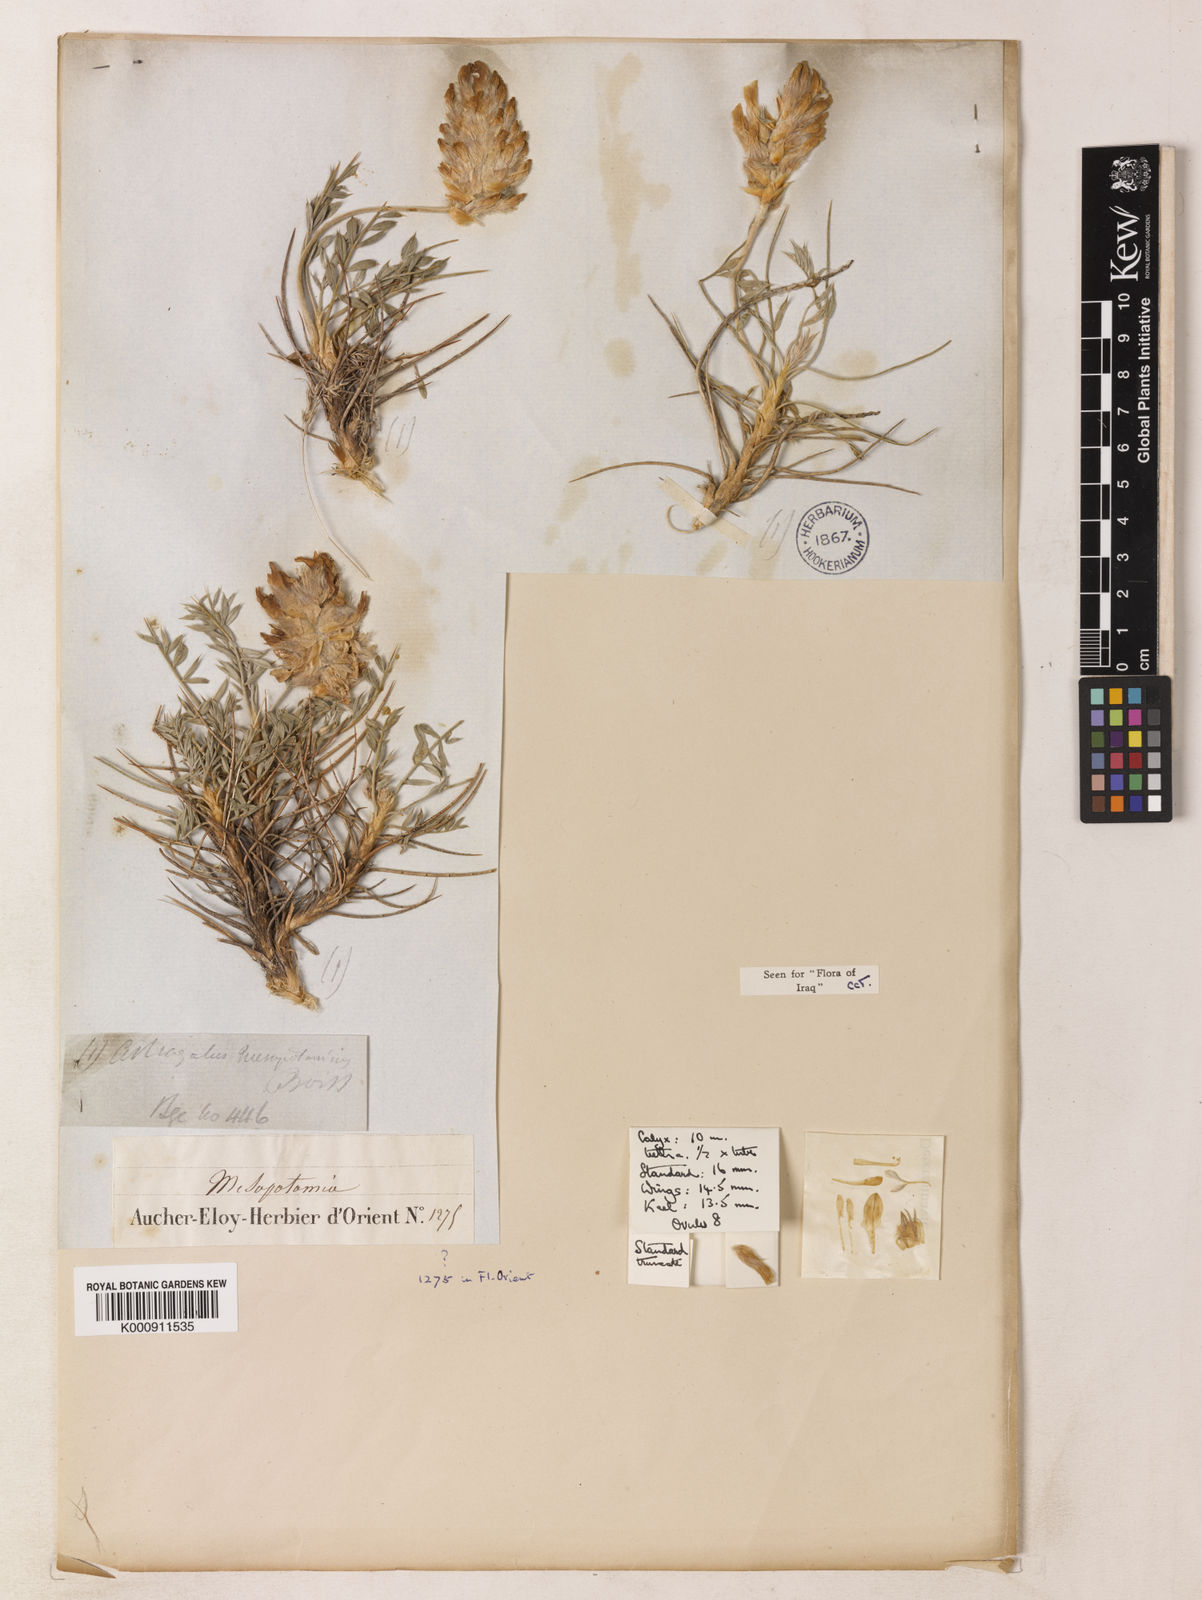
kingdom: Plantae
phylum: Tracheophyta
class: Magnoliopsida
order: Fabales
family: Fabaceae
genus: Astragalus
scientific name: Astragalus persicus
